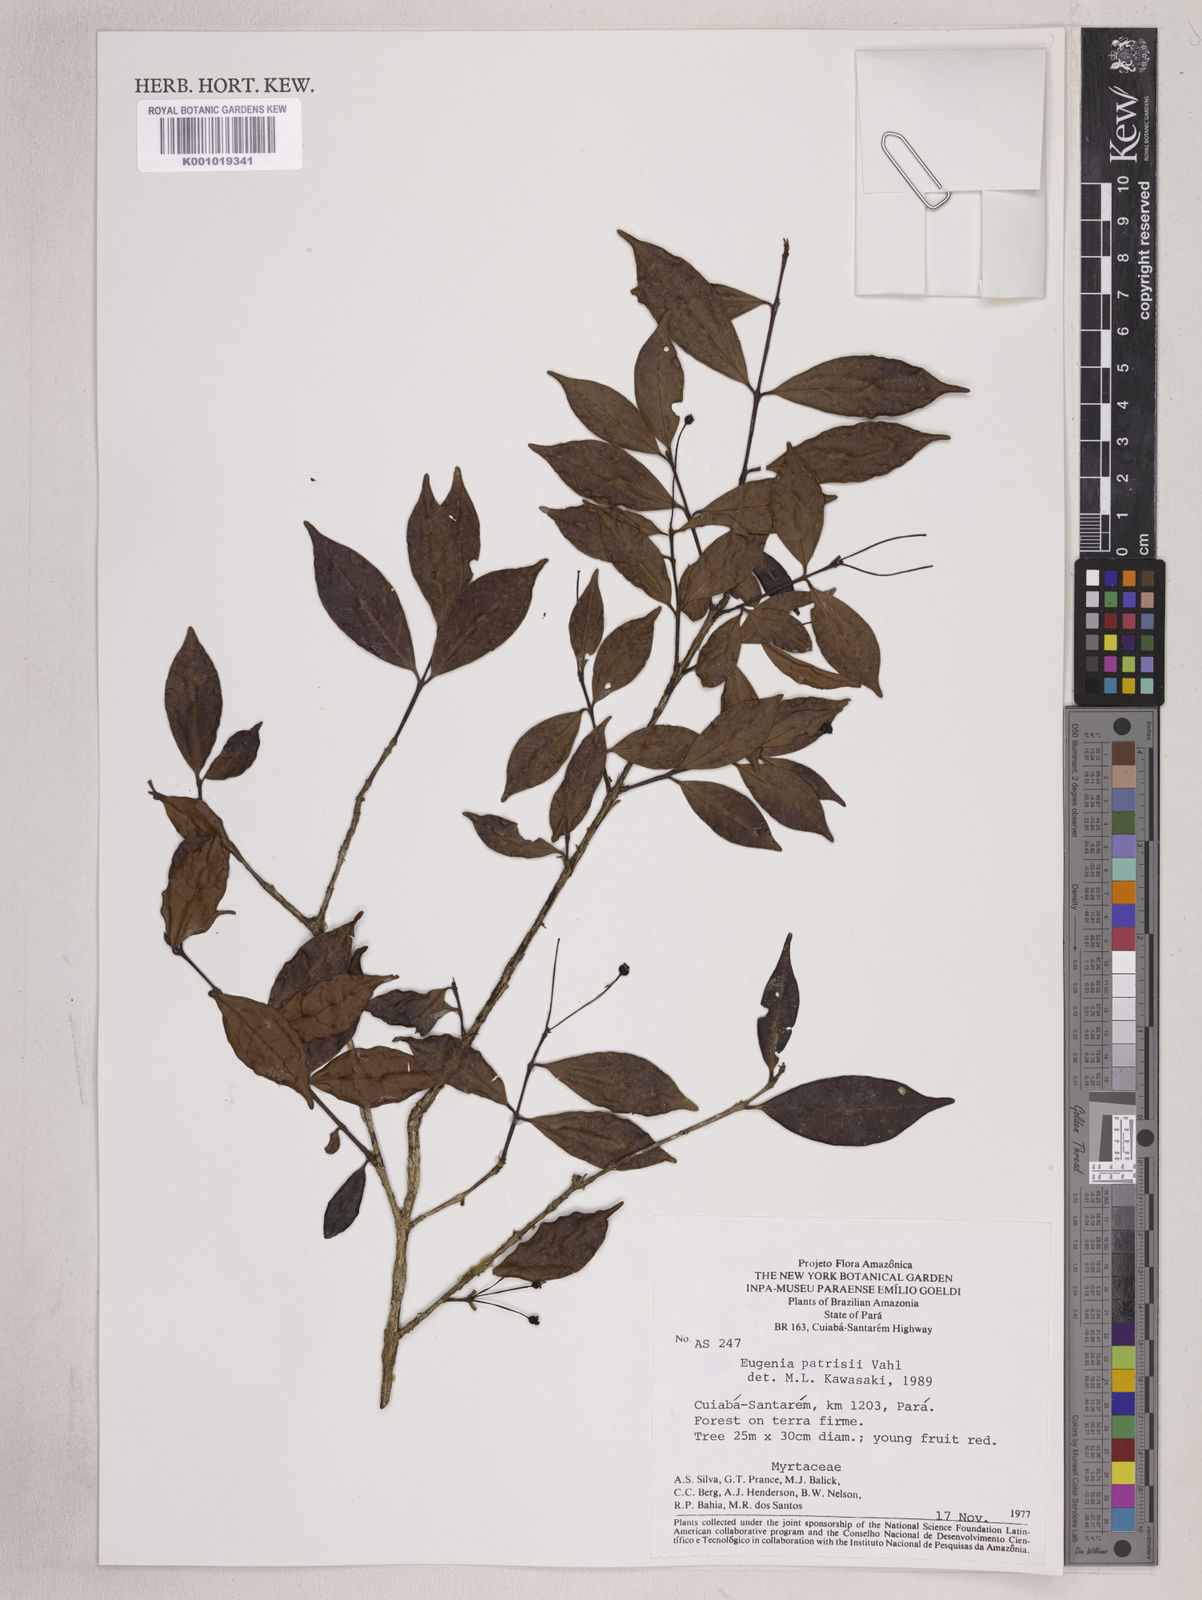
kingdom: Plantae
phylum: Tracheophyta
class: Magnoliopsida
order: Myrtales
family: Myrtaceae
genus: Eugenia
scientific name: Eugenia patrisii
